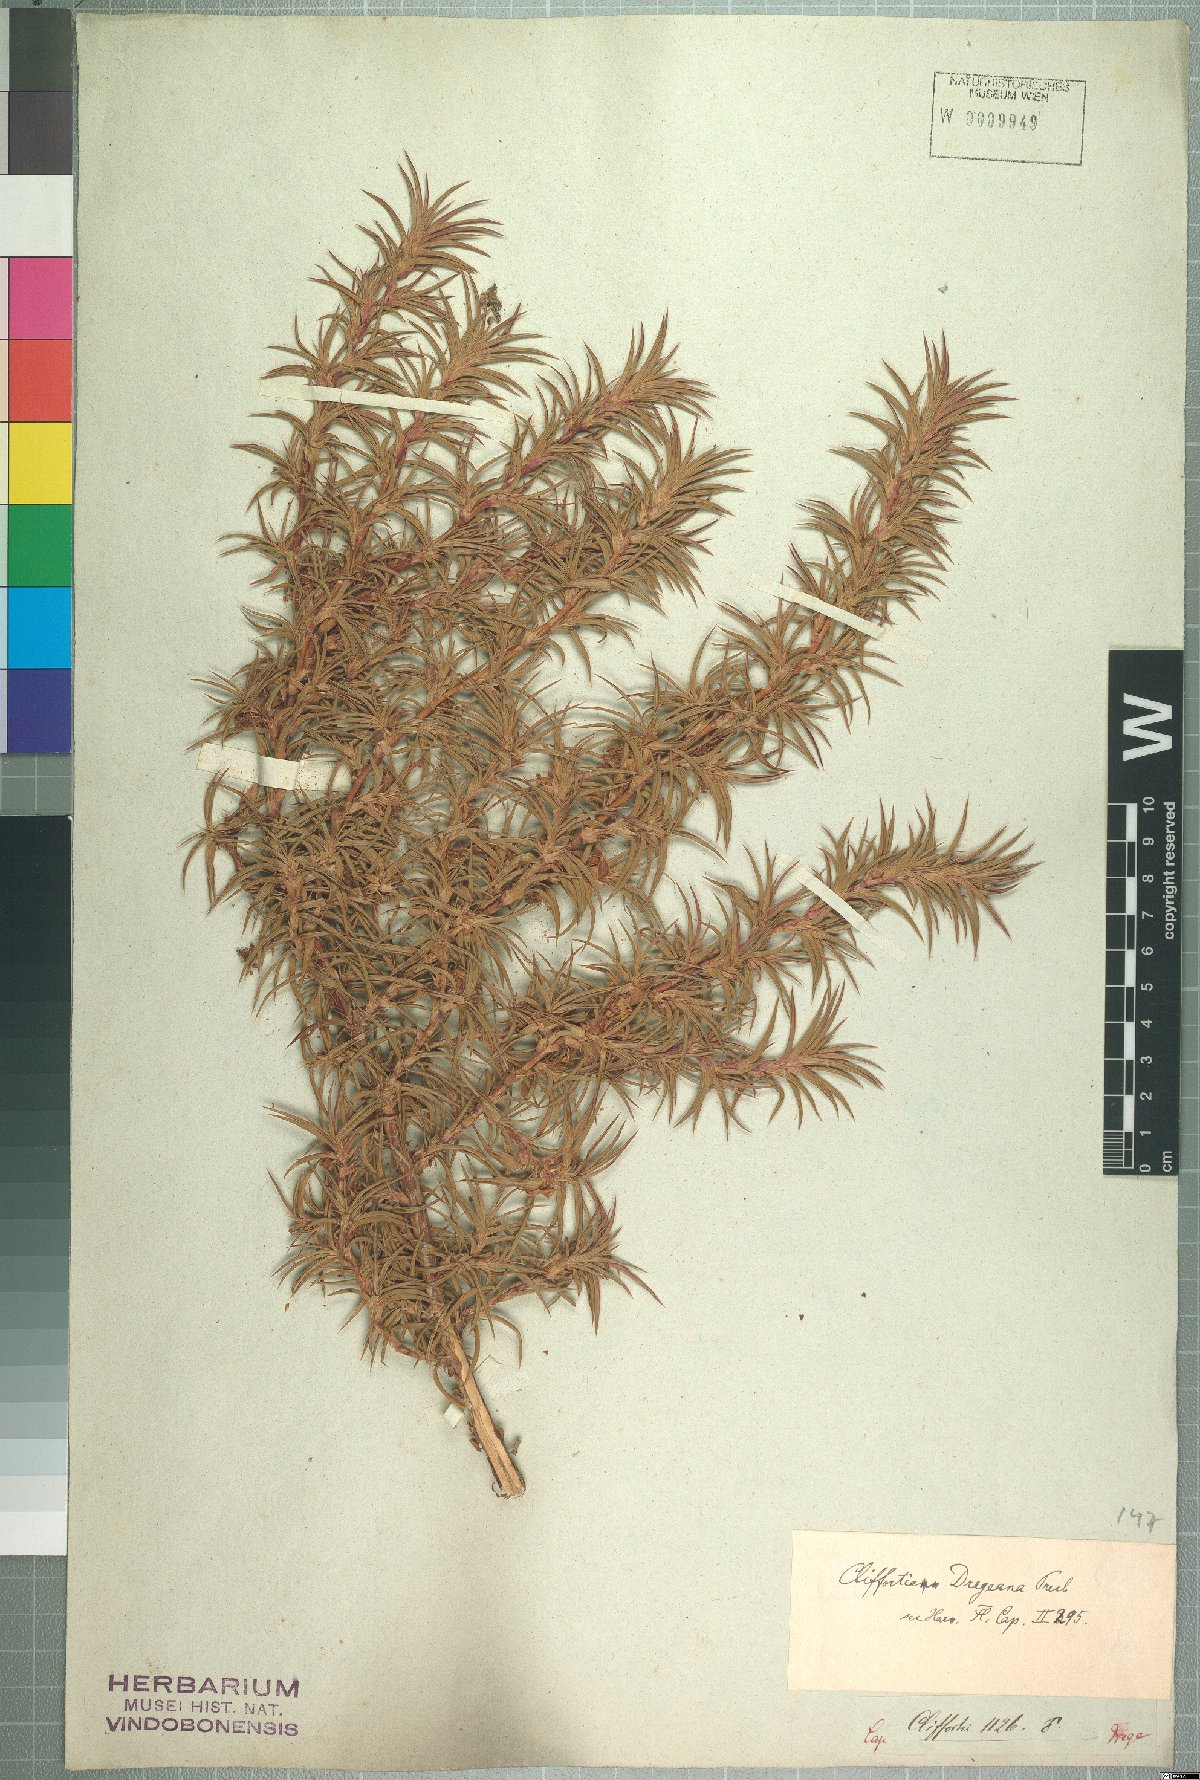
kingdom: Plantae
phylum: Tracheophyta
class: Magnoliopsida
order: Rosales
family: Rosaceae
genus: Cliffortia
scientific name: Cliffortia dregeana
